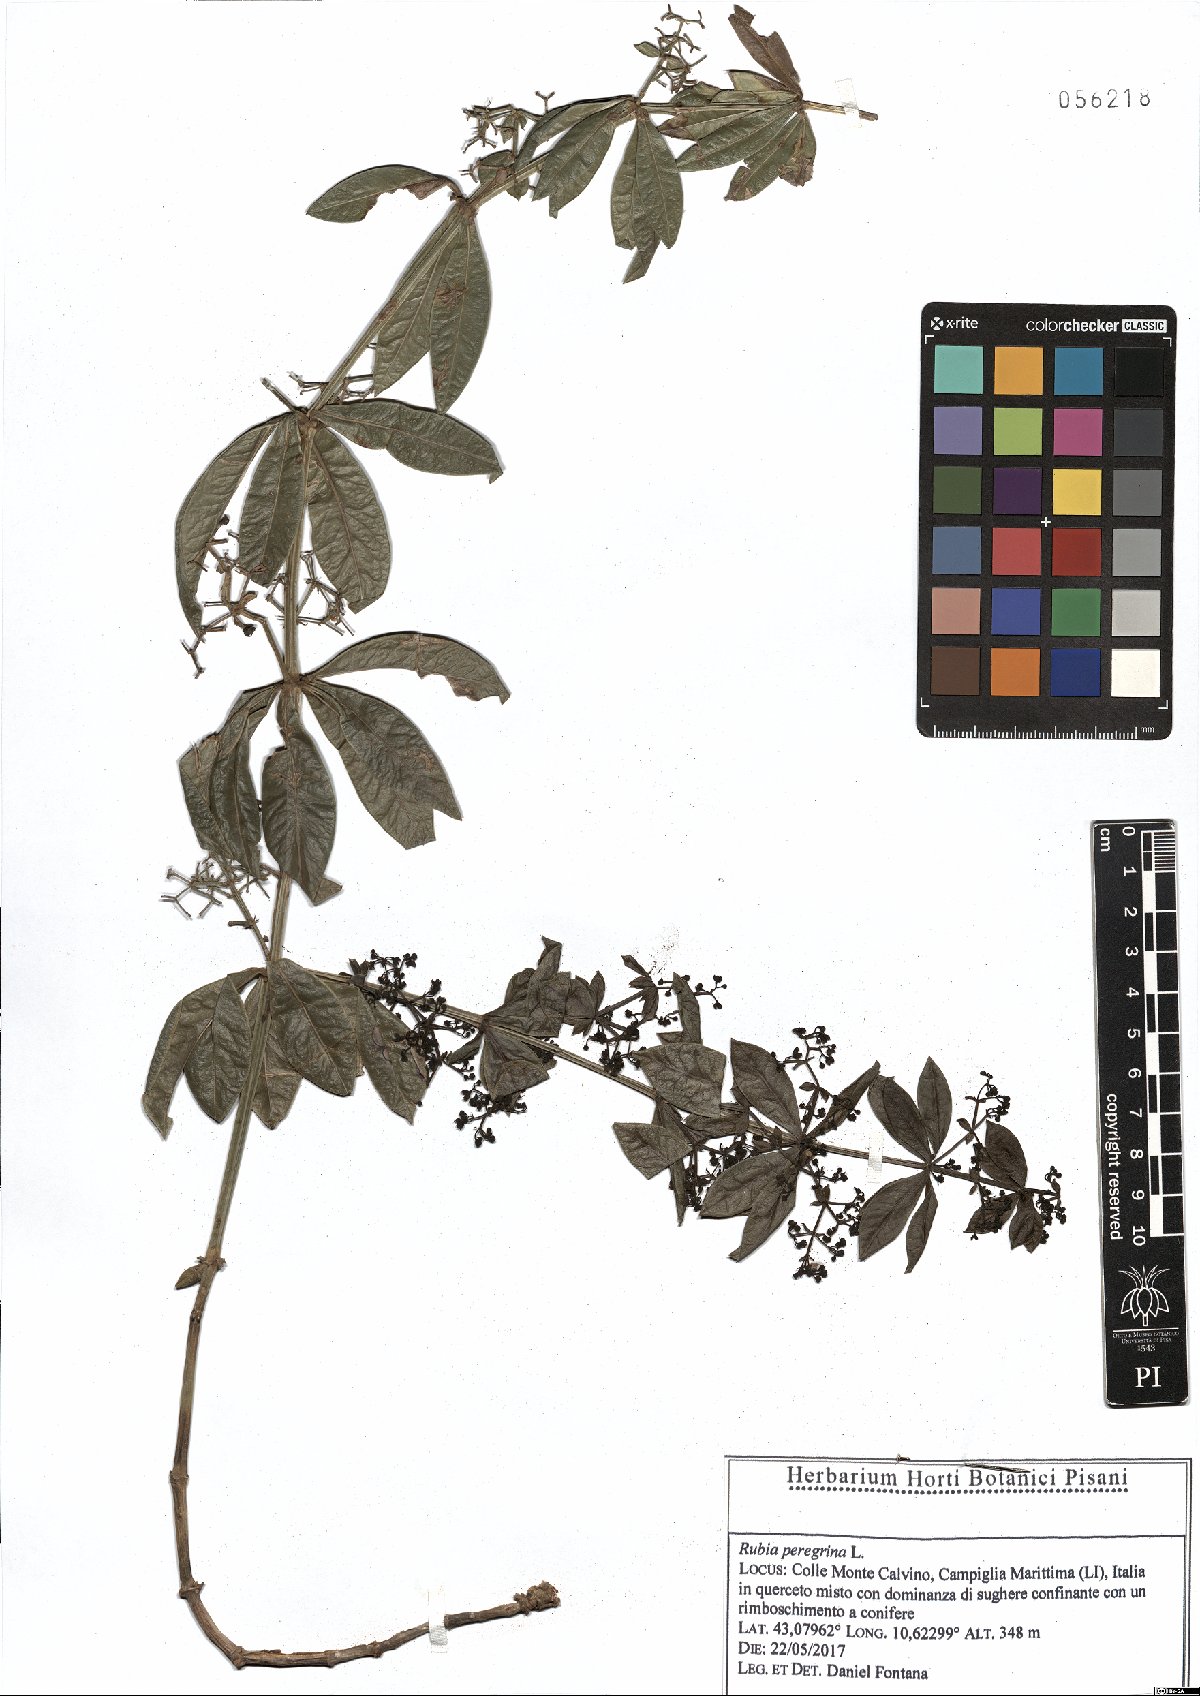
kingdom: Plantae
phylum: Tracheophyta
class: Magnoliopsida
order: Gentianales
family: Rubiaceae
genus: Rubia
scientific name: Rubia peregrina
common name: Wild madder
